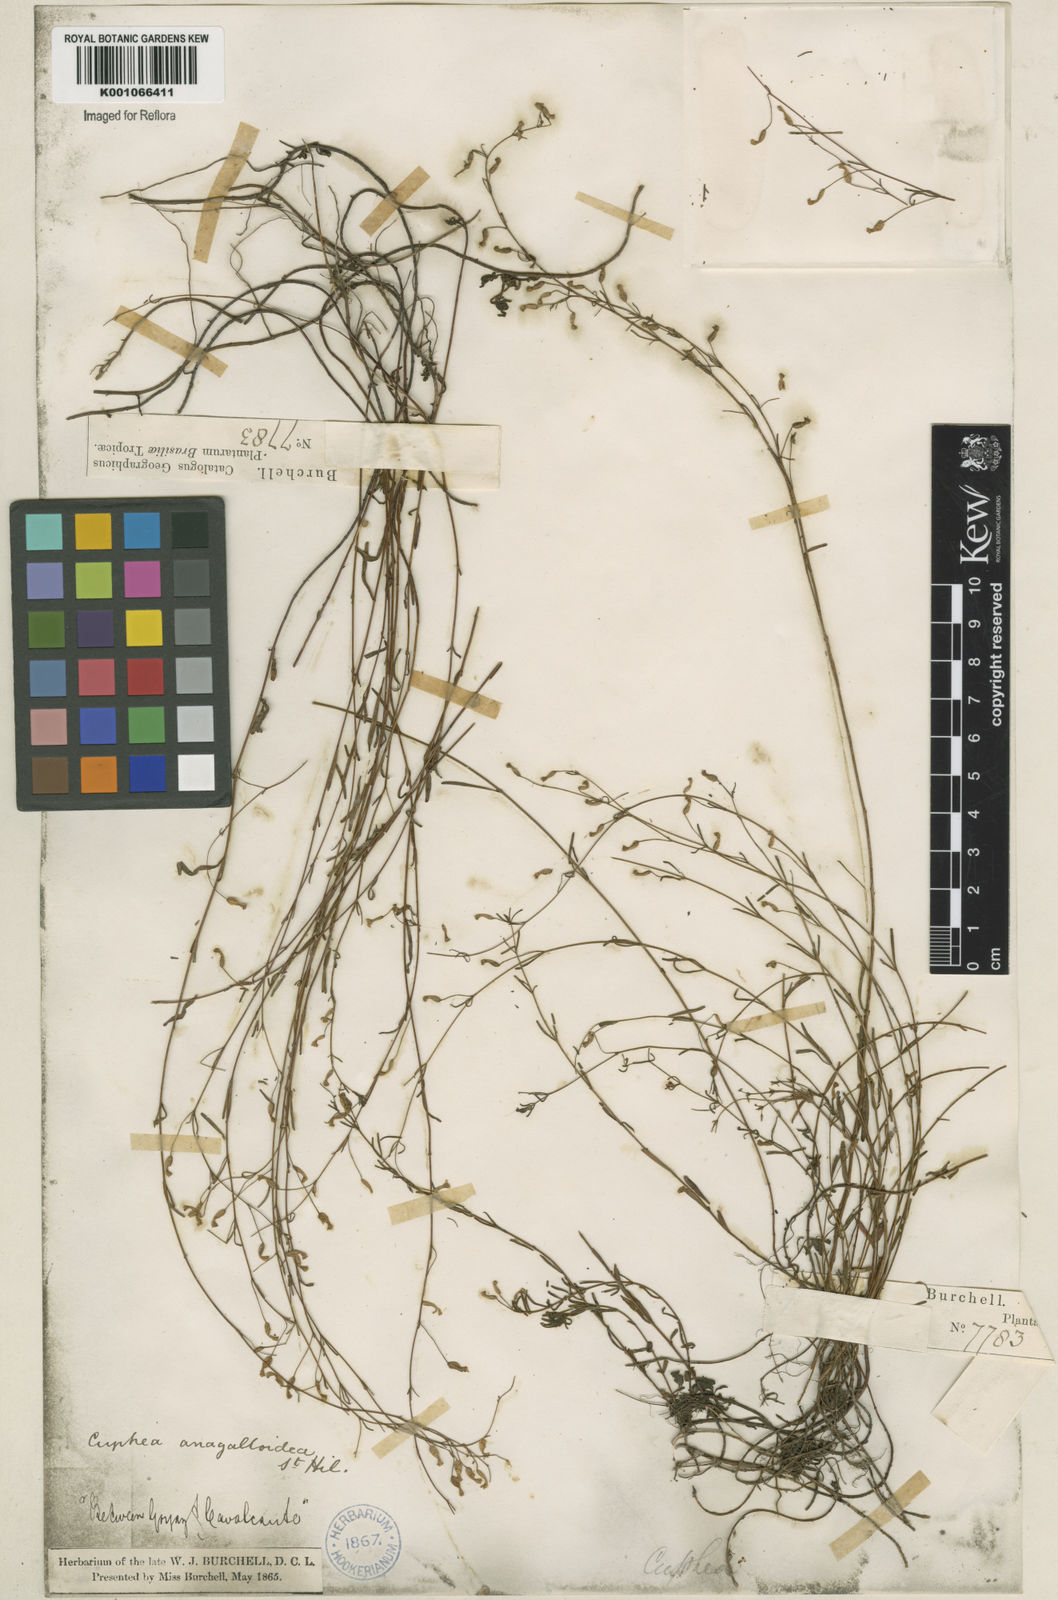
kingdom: Plantae
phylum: Tracheophyta
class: Magnoliopsida
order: Myrtales
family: Lythraceae
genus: Cuphea
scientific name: Cuphea anagalloidea
